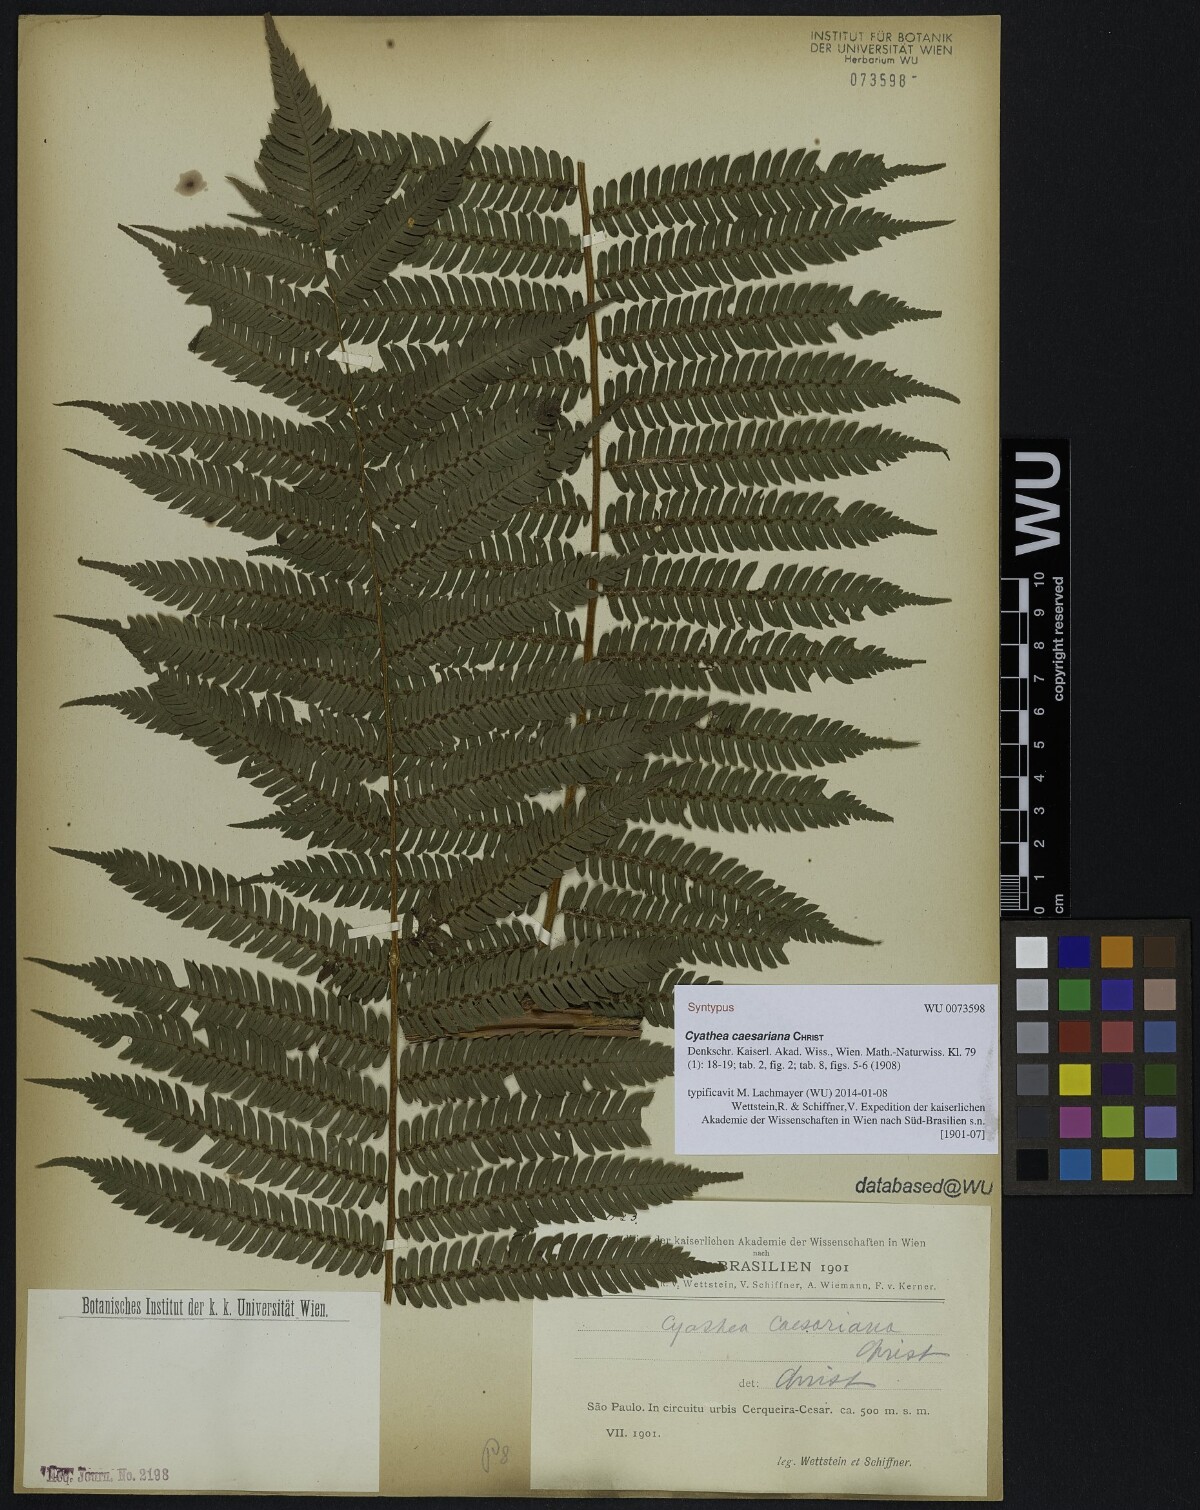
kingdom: Plantae
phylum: Tracheophyta
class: Polypodiopsida
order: Cyatheales
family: Cyatheaceae
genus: Alsophila
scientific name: Alsophila sternbergii
